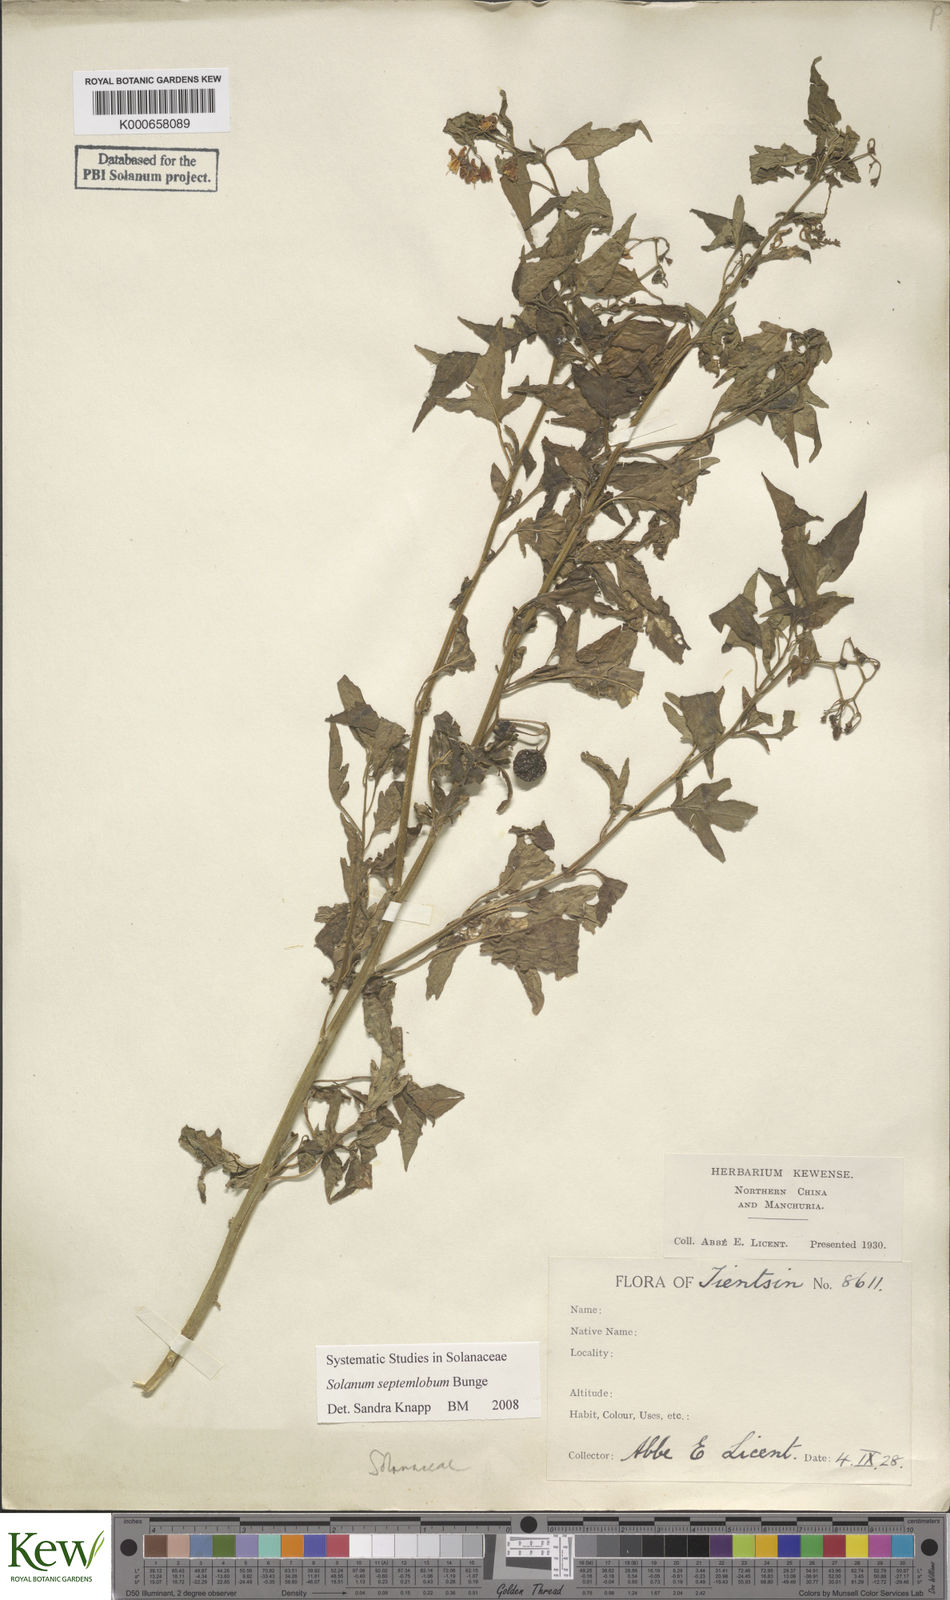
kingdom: Plantae
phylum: Tracheophyta
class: Magnoliopsida
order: Solanales
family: Solanaceae
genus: Solanum
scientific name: Solanum septemlobum
